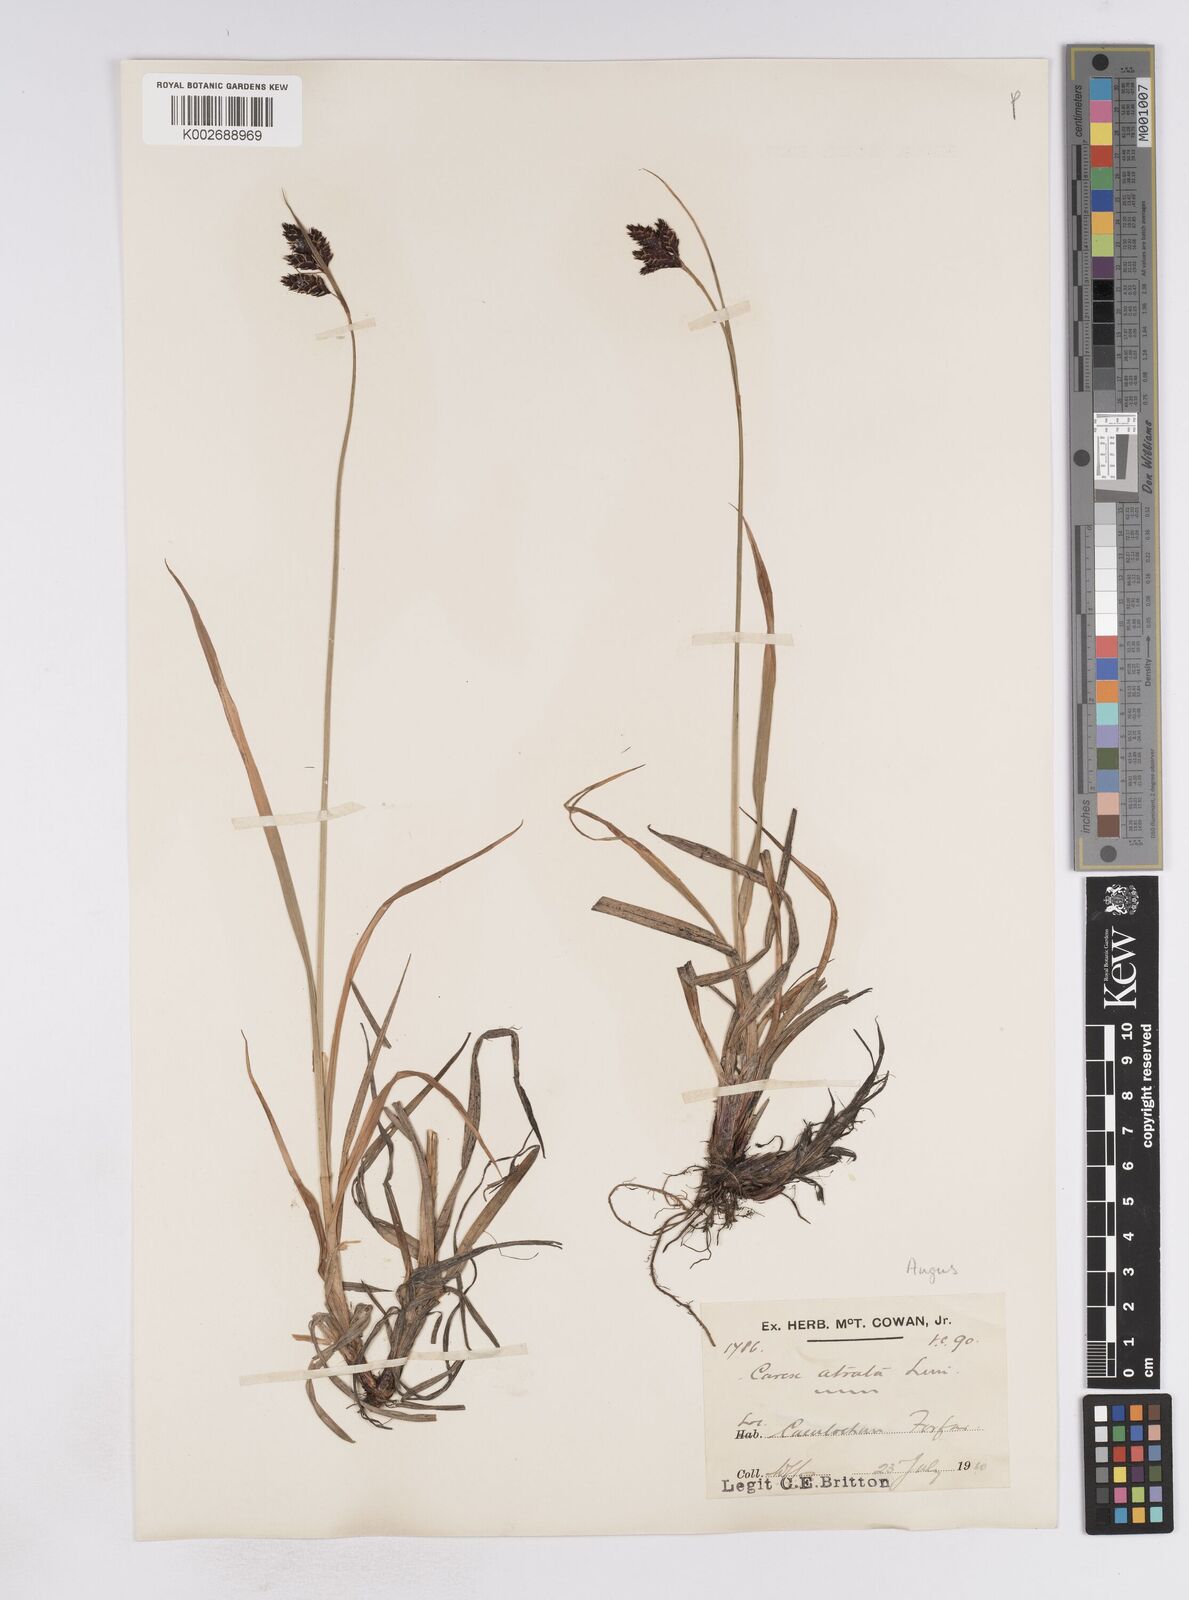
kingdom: Plantae
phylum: Tracheophyta
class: Liliopsida
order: Poales
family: Cyperaceae
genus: Carex
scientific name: Carex atrata
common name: Black alpine sedge
